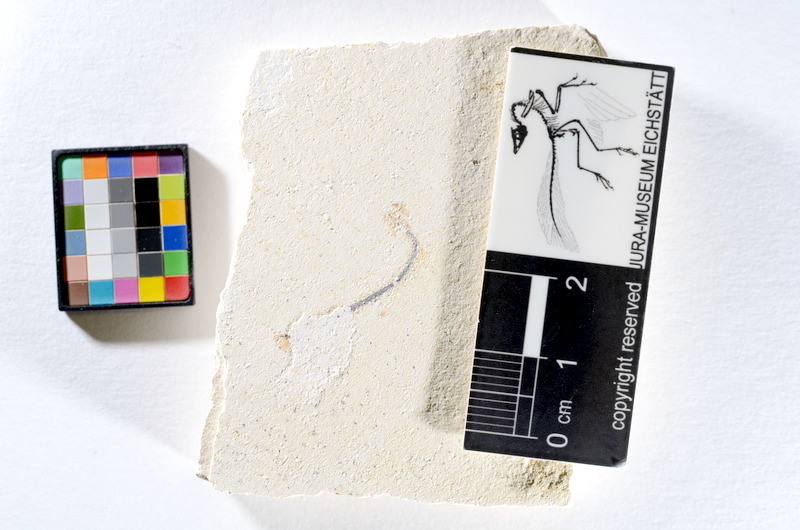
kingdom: Animalia
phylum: Chordata
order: Salmoniformes
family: Orthogonikleithridae
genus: Orthogonikleithrus
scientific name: Orthogonikleithrus hoelli
